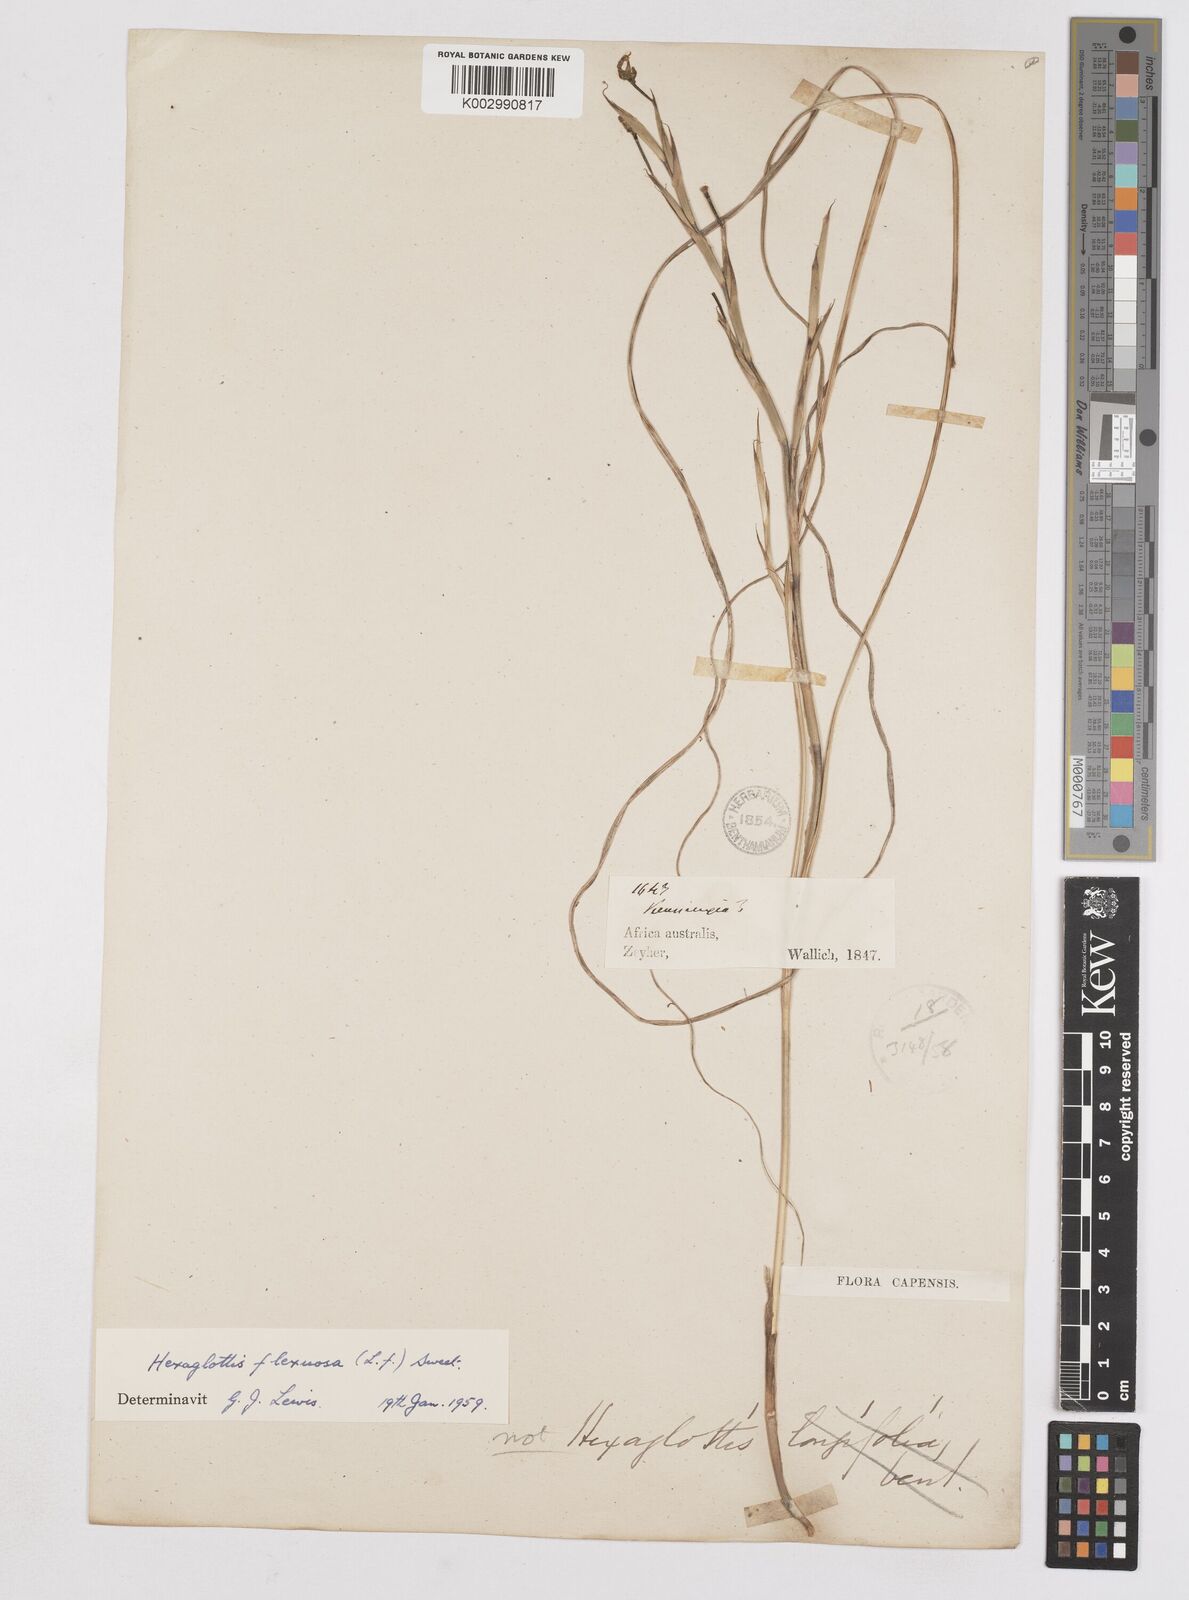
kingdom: Plantae
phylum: Tracheophyta
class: Liliopsida
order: Asparagales
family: Iridaceae
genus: Moraea
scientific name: Moraea lewisiae
